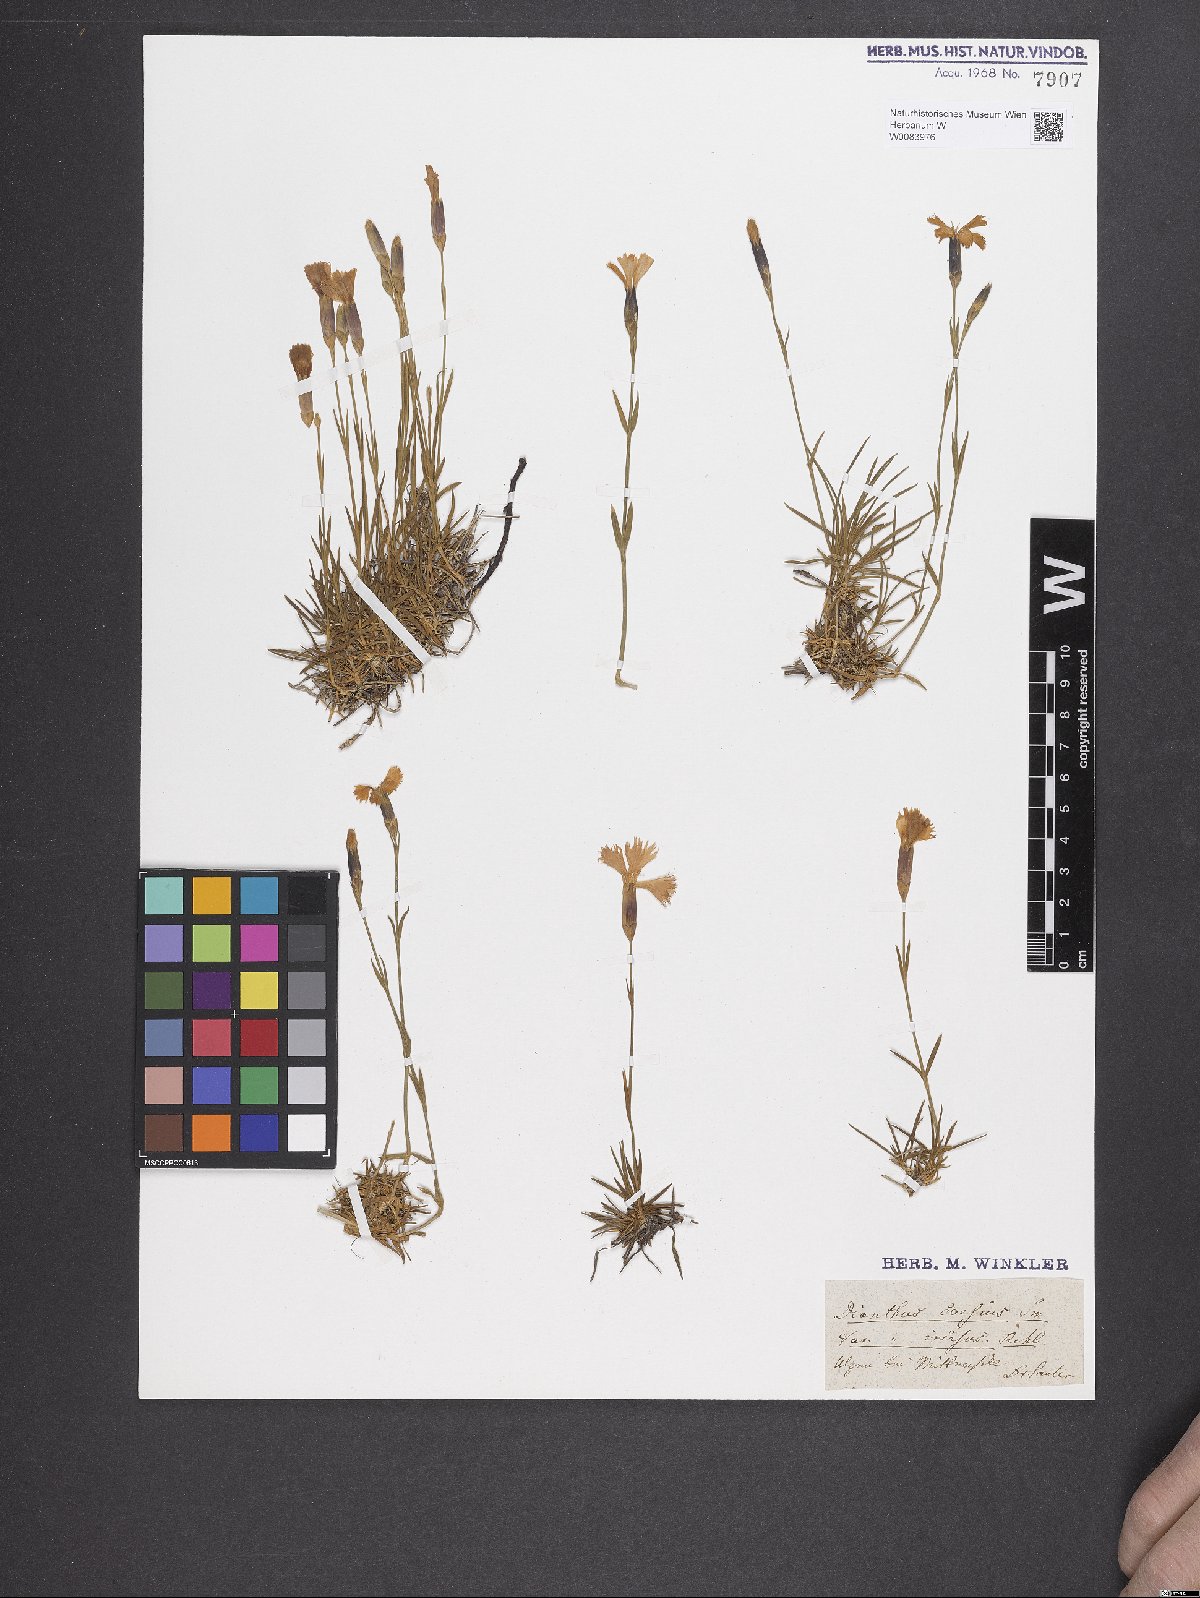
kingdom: Plantae
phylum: Tracheophyta
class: Magnoliopsida
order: Caryophyllales
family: Caryophyllaceae
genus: Dianthus
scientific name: Dianthus gratianopolitanus
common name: Cheddar pink
